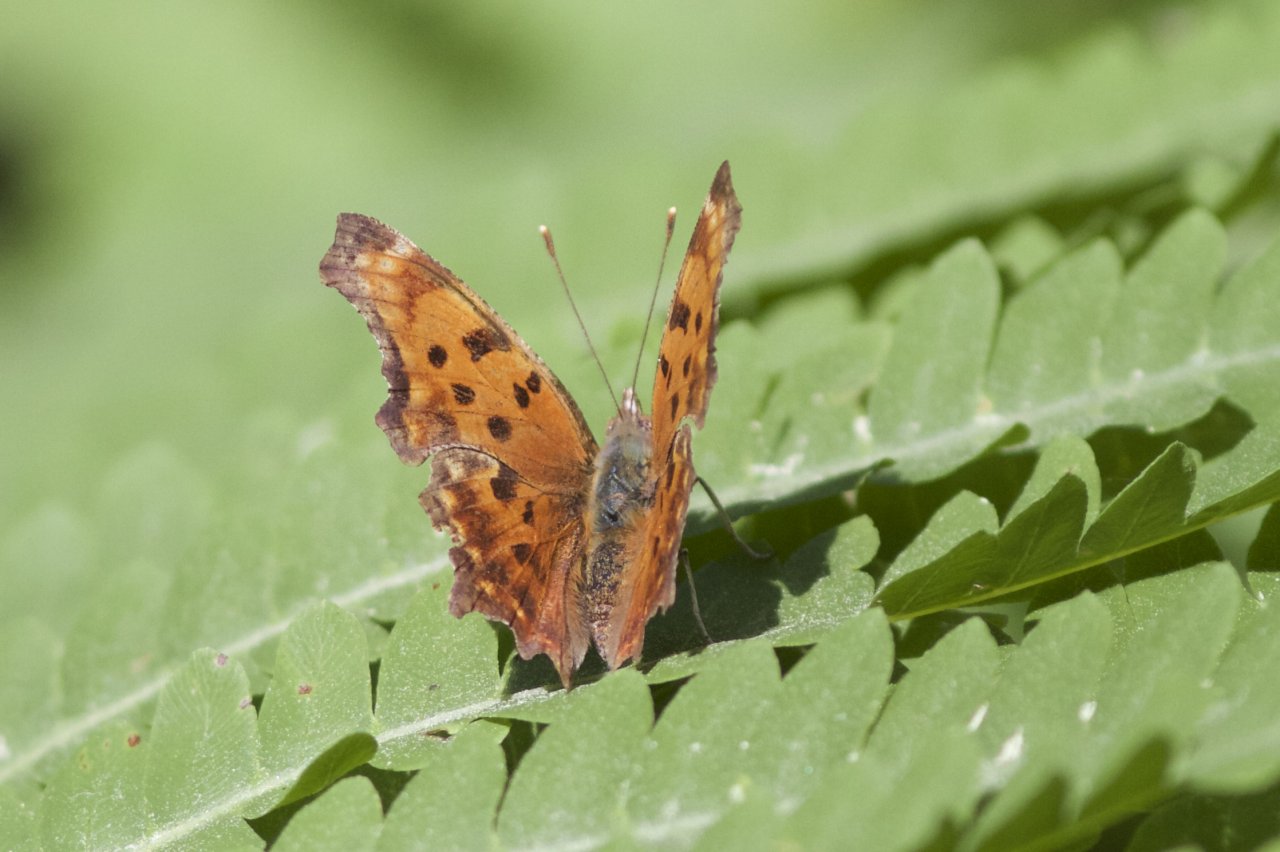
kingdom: Animalia
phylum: Arthropoda
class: Insecta
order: Lepidoptera
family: Nymphalidae
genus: Polygonia
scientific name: Polygonia
